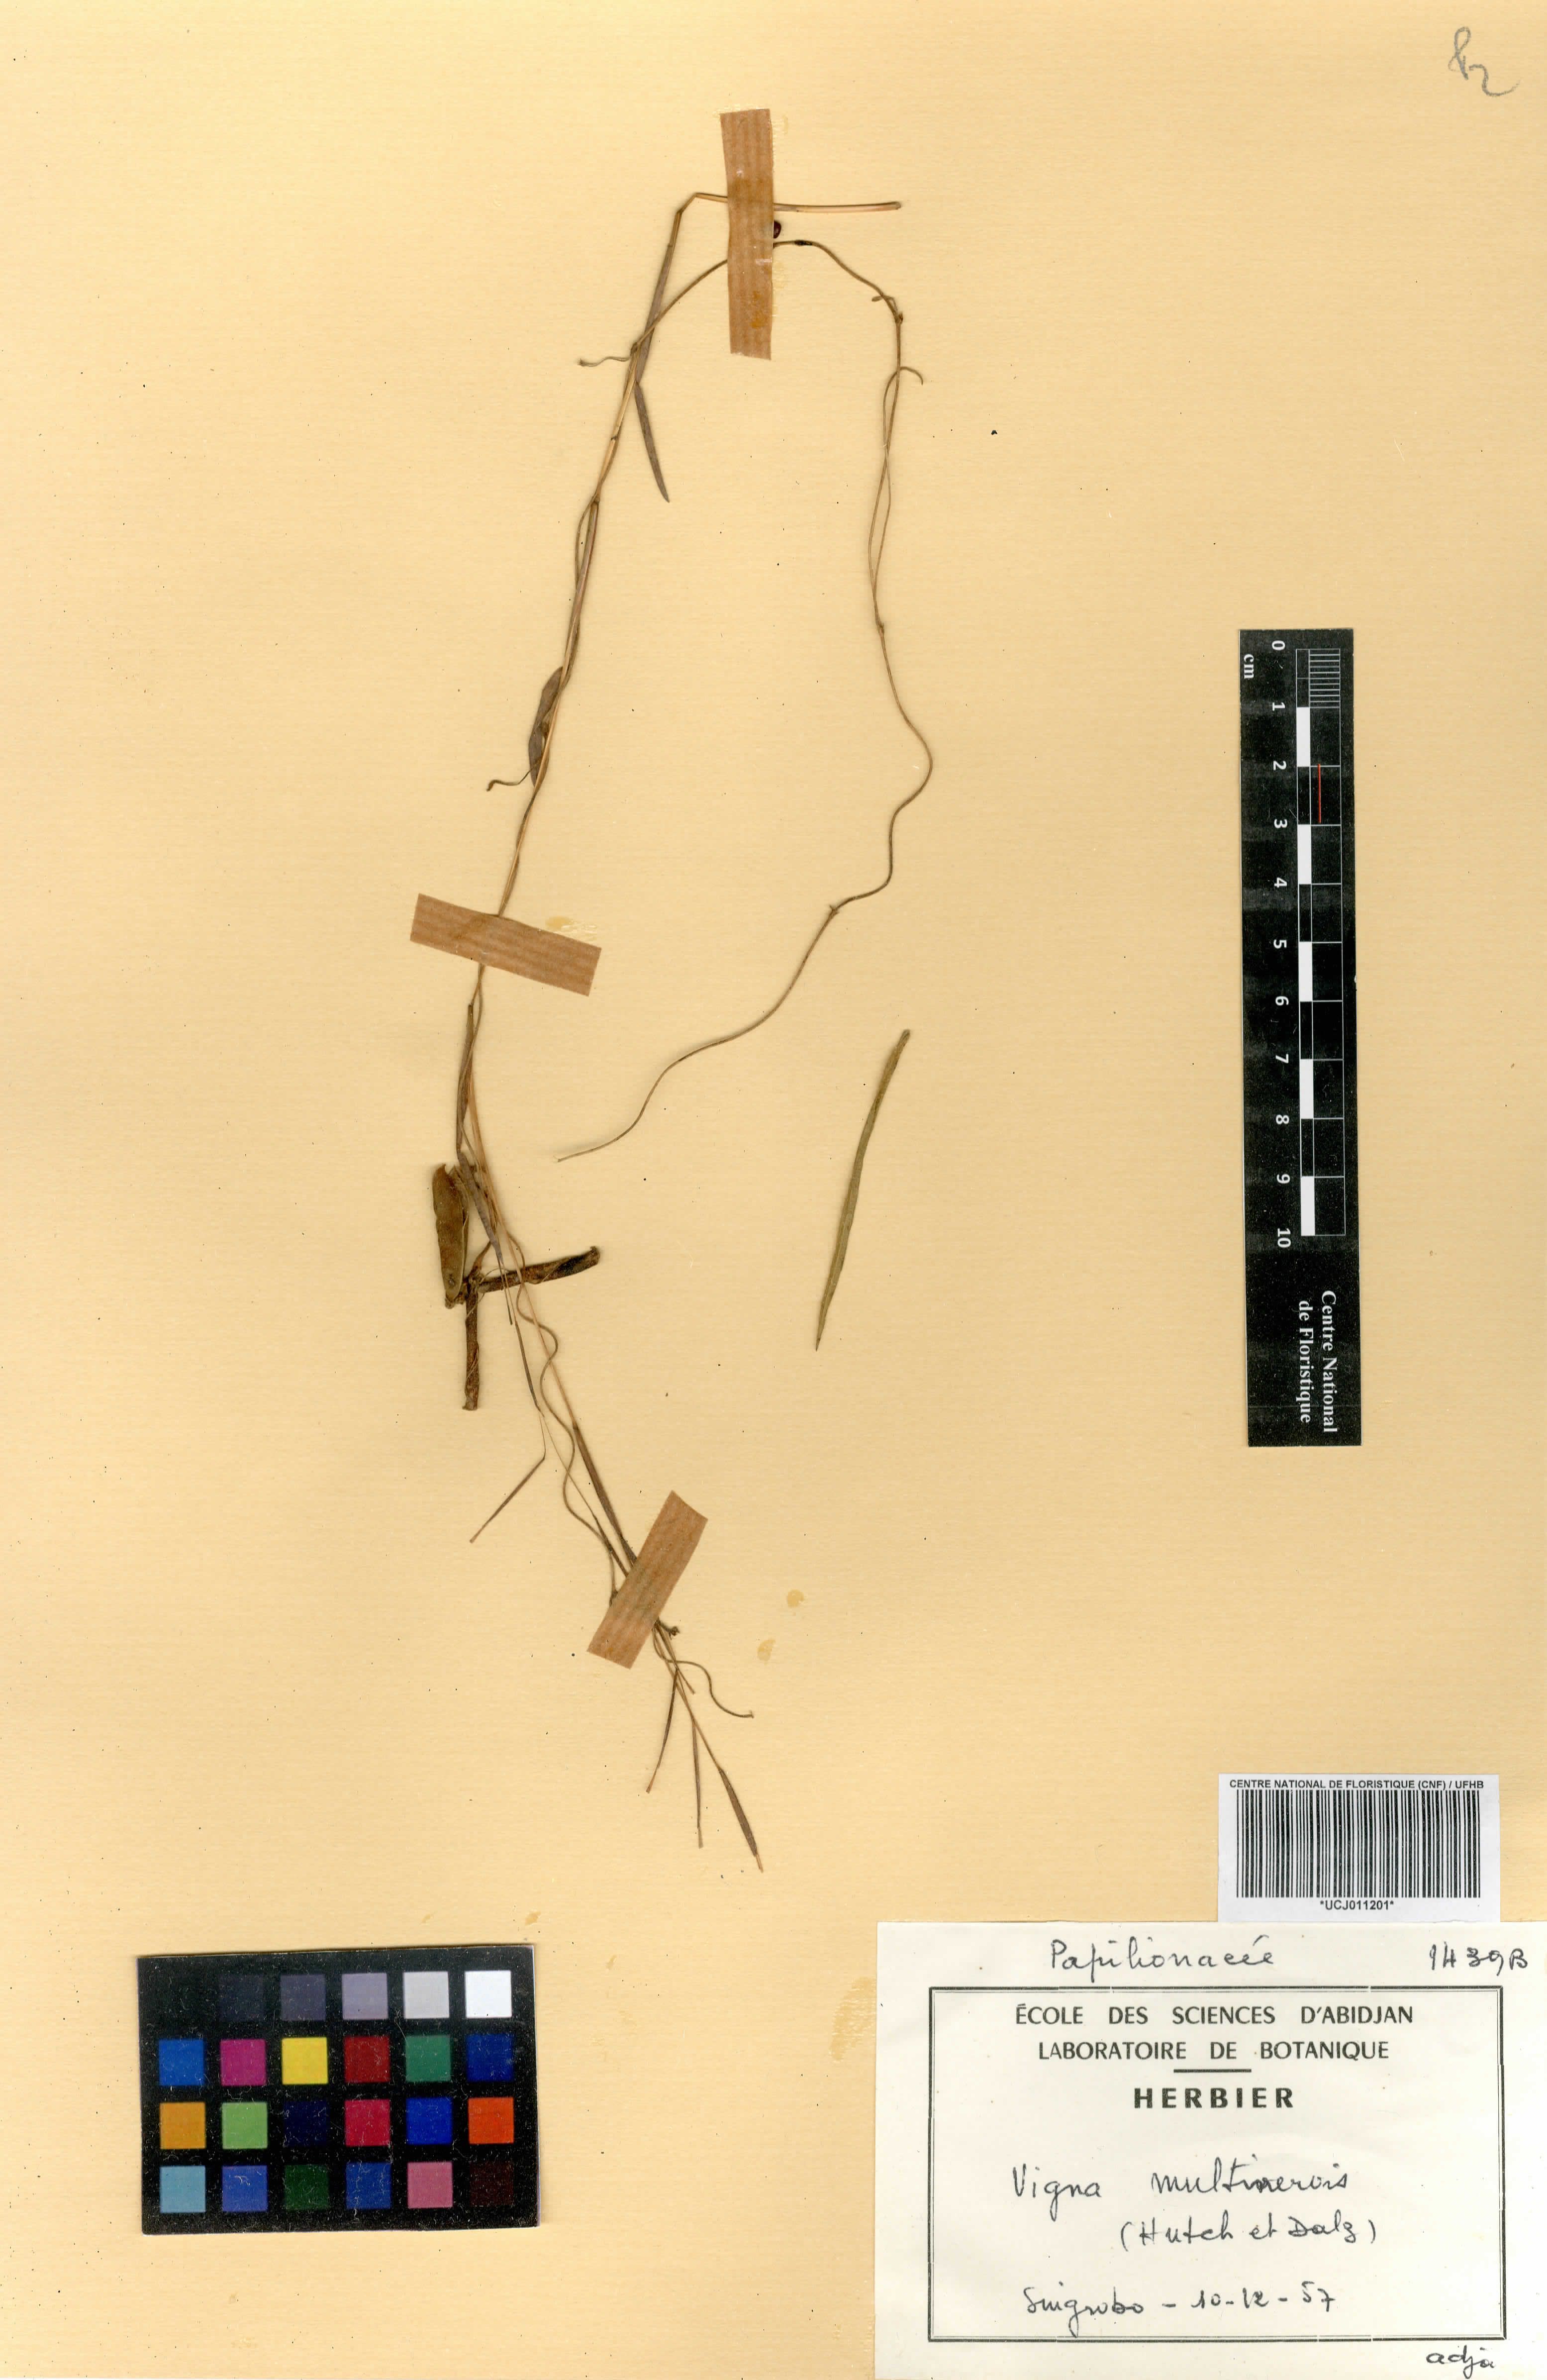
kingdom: Plantae
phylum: Tracheophyta
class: Magnoliopsida
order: Fabales
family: Fabaceae
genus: Vigna
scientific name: Vigna multinervis
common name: Fula-pulaar
